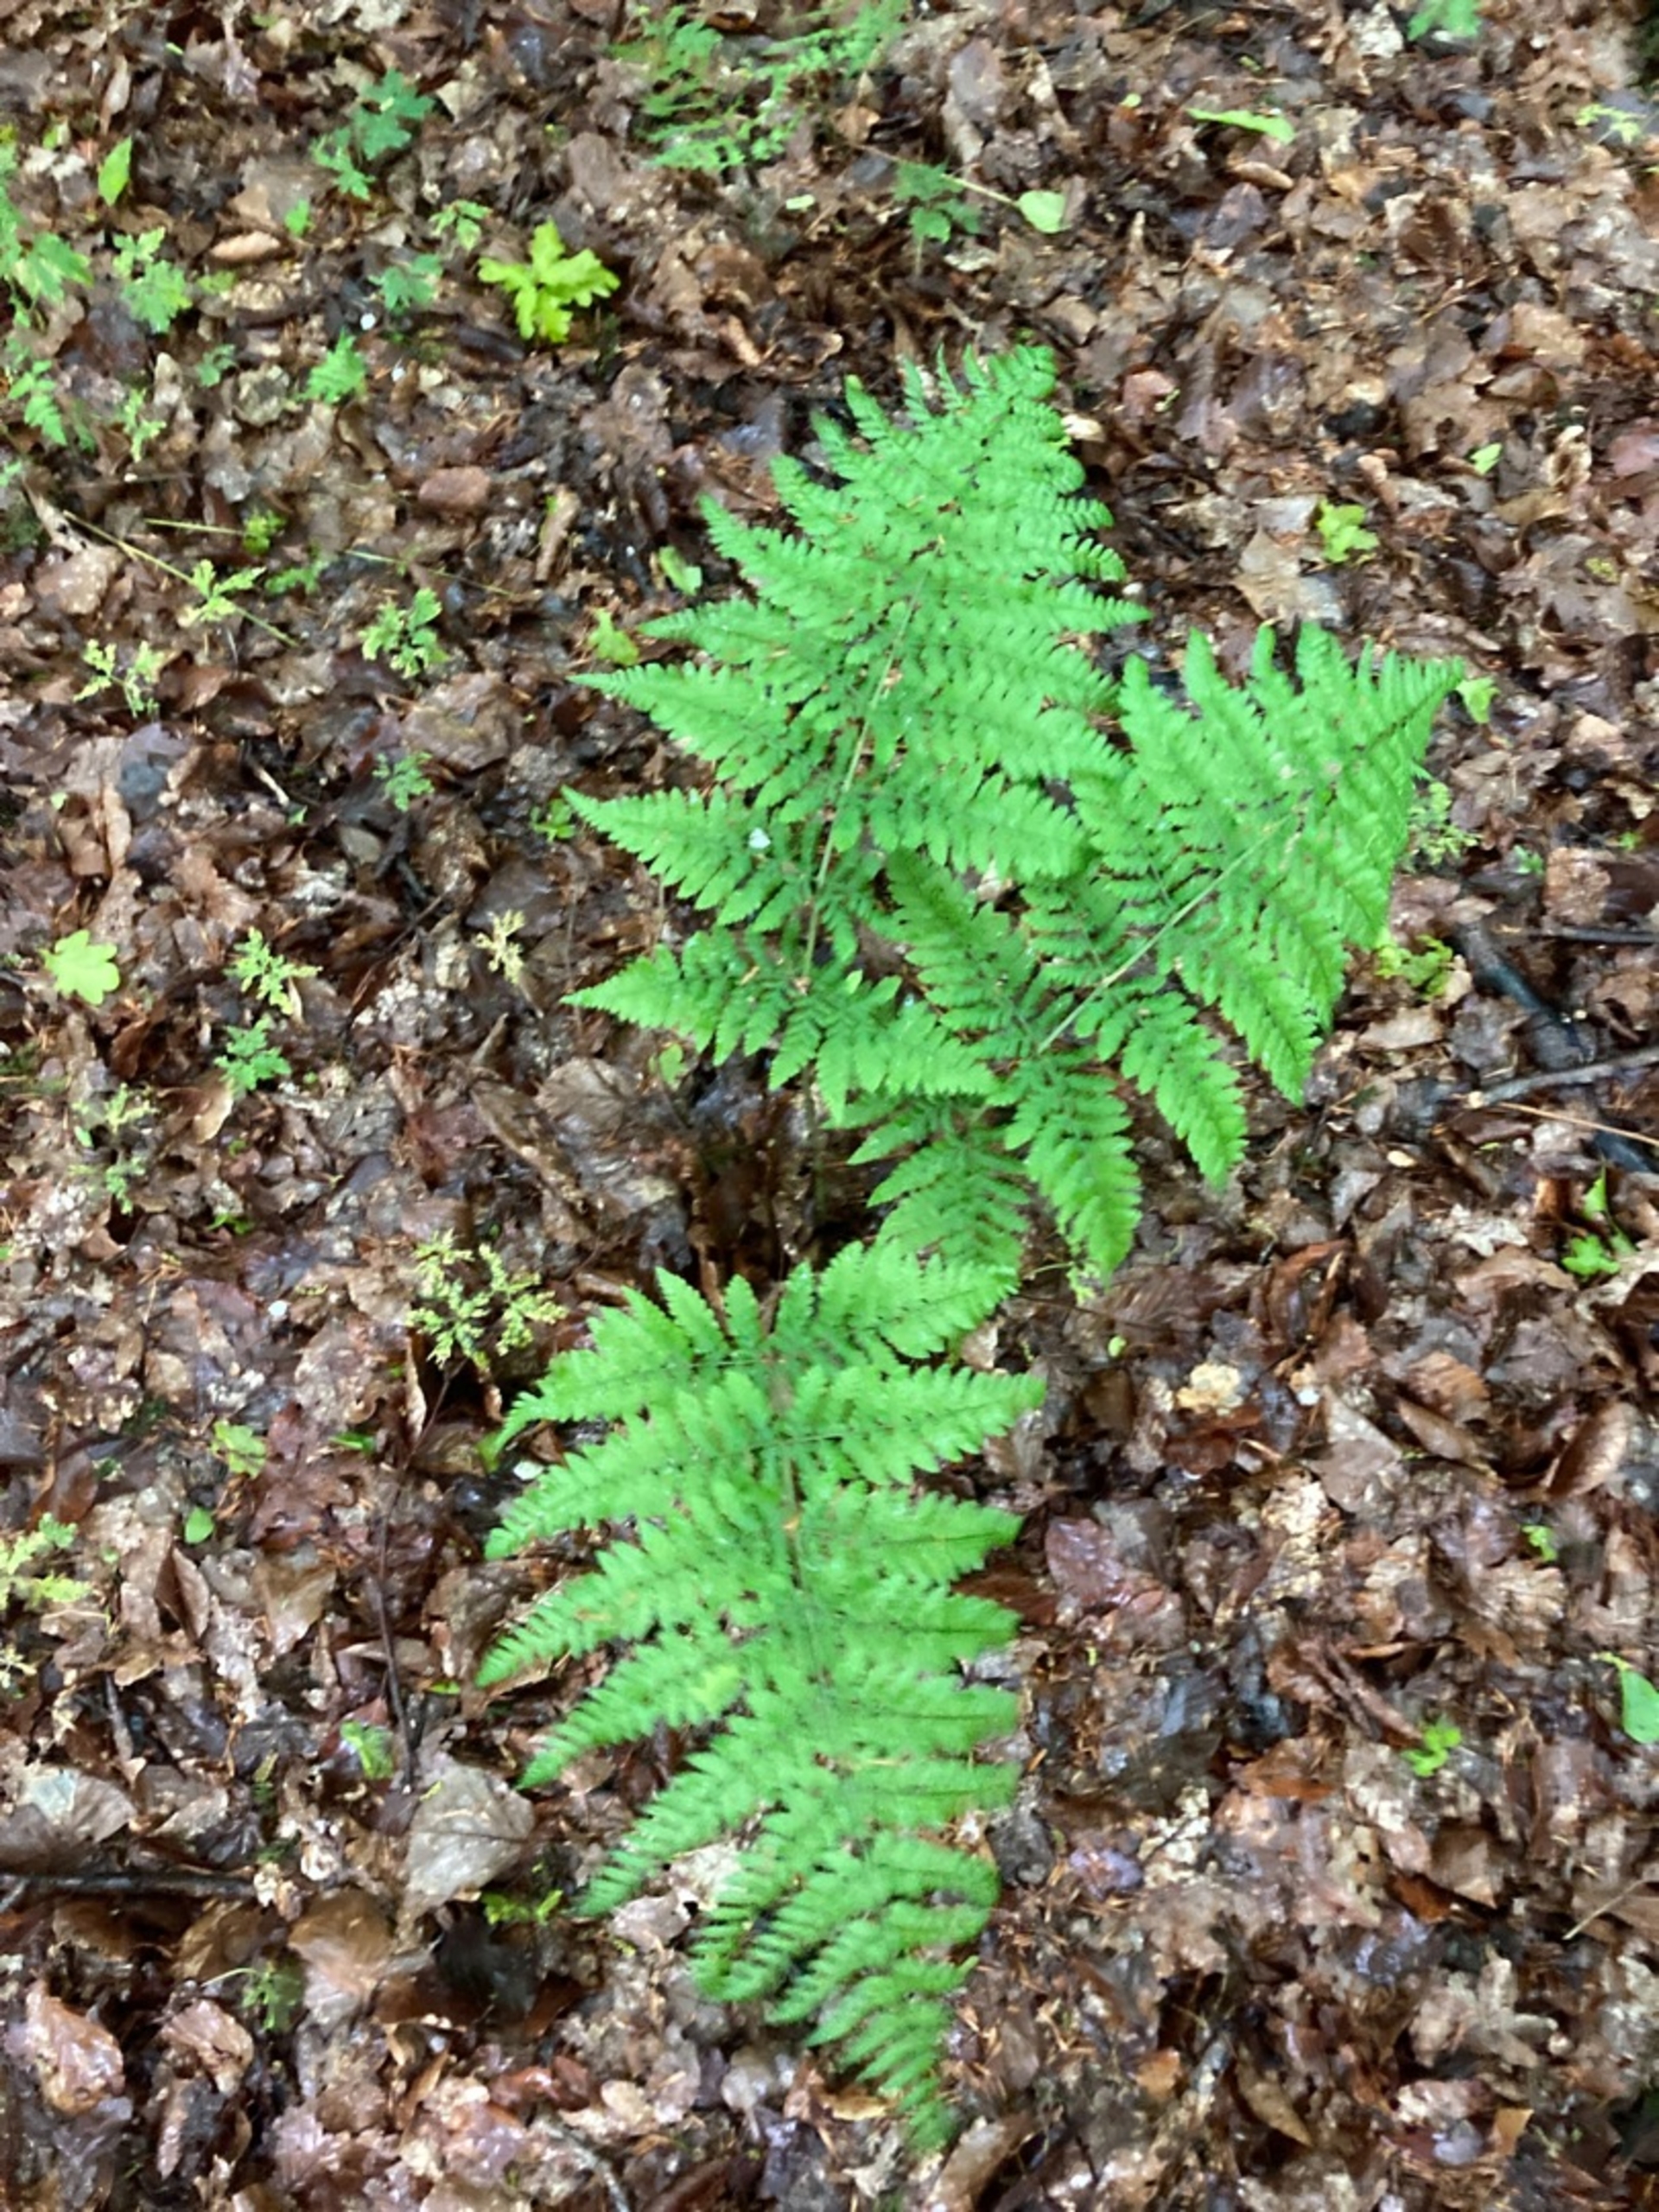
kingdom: Plantae
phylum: Tracheophyta
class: Polypodiopsida
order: Polypodiales
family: Dryopteridaceae
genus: Dryopteris
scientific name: Dryopteris dilatata
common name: Bredbladet mangeløv
